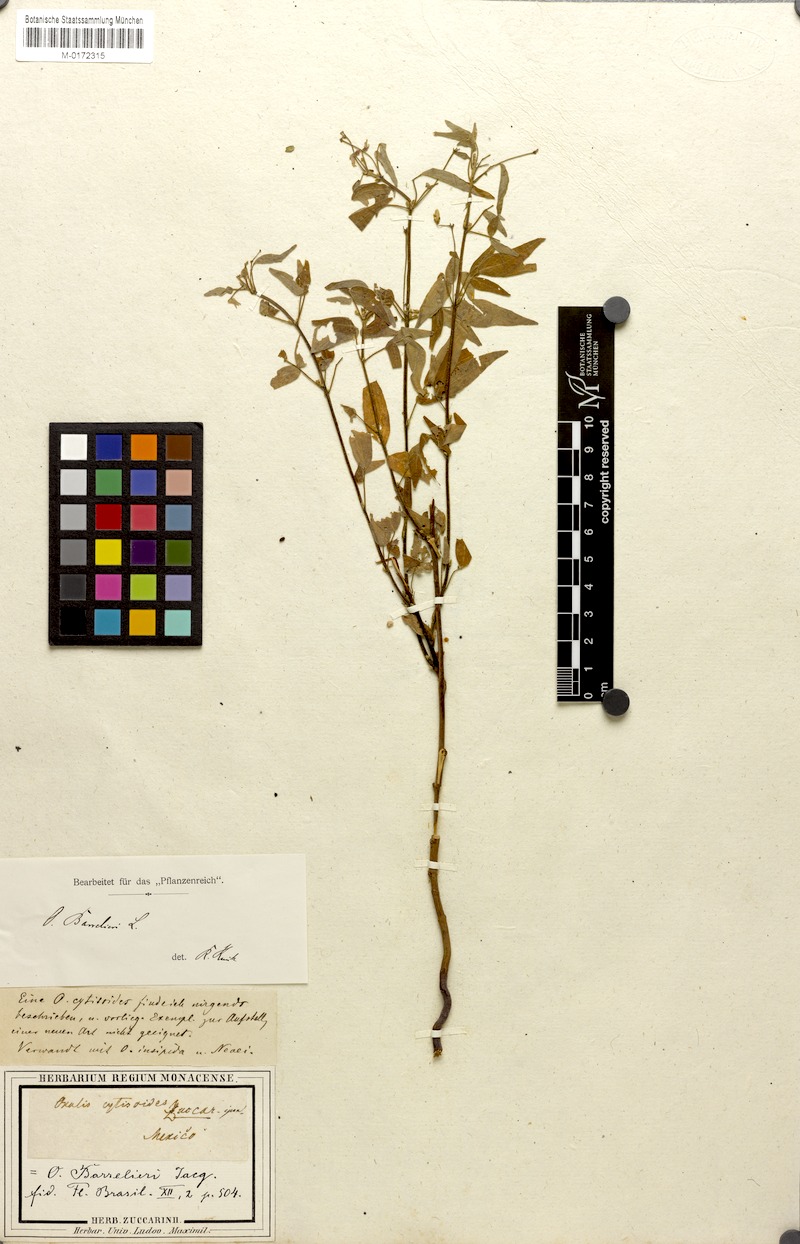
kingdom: Plantae
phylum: Tracheophyta
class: Magnoliopsida
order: Oxalidales
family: Oxalidaceae
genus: Oxalis
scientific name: Oxalis barrelieri
